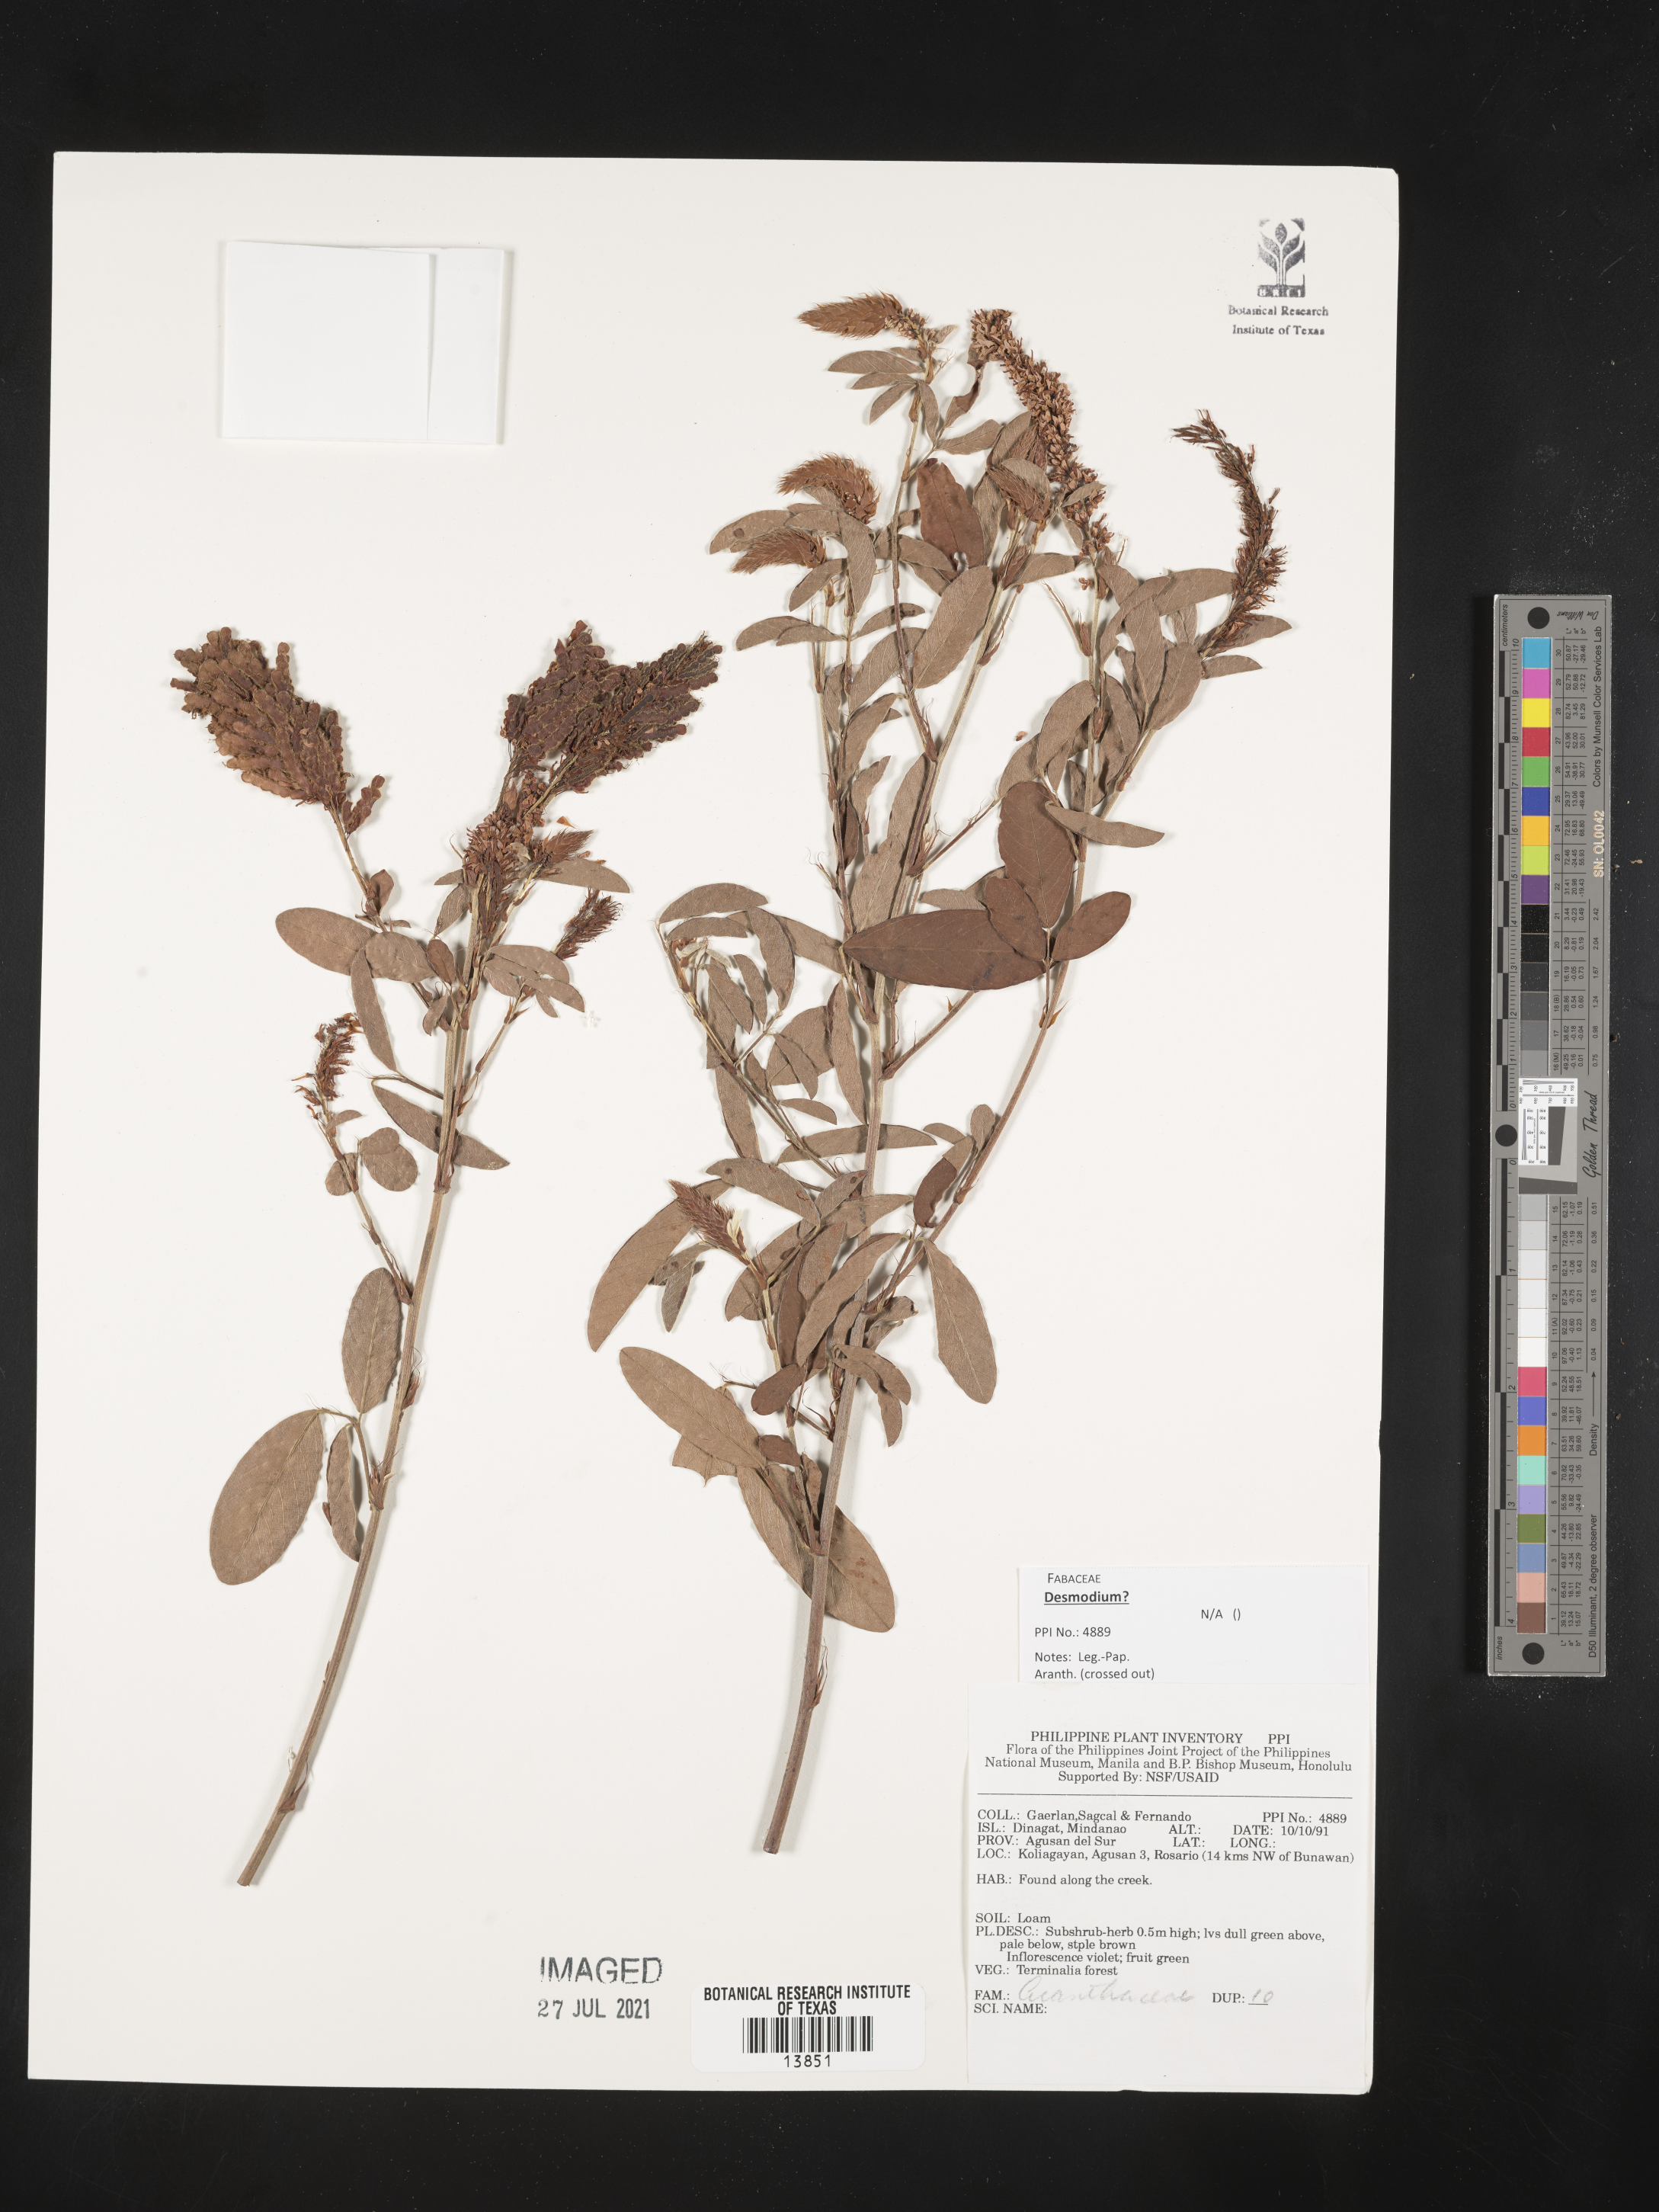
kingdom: Plantae
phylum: Tracheophyta
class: Magnoliopsida
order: Fabales
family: Fabaceae
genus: Desmodium
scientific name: Desmodium
